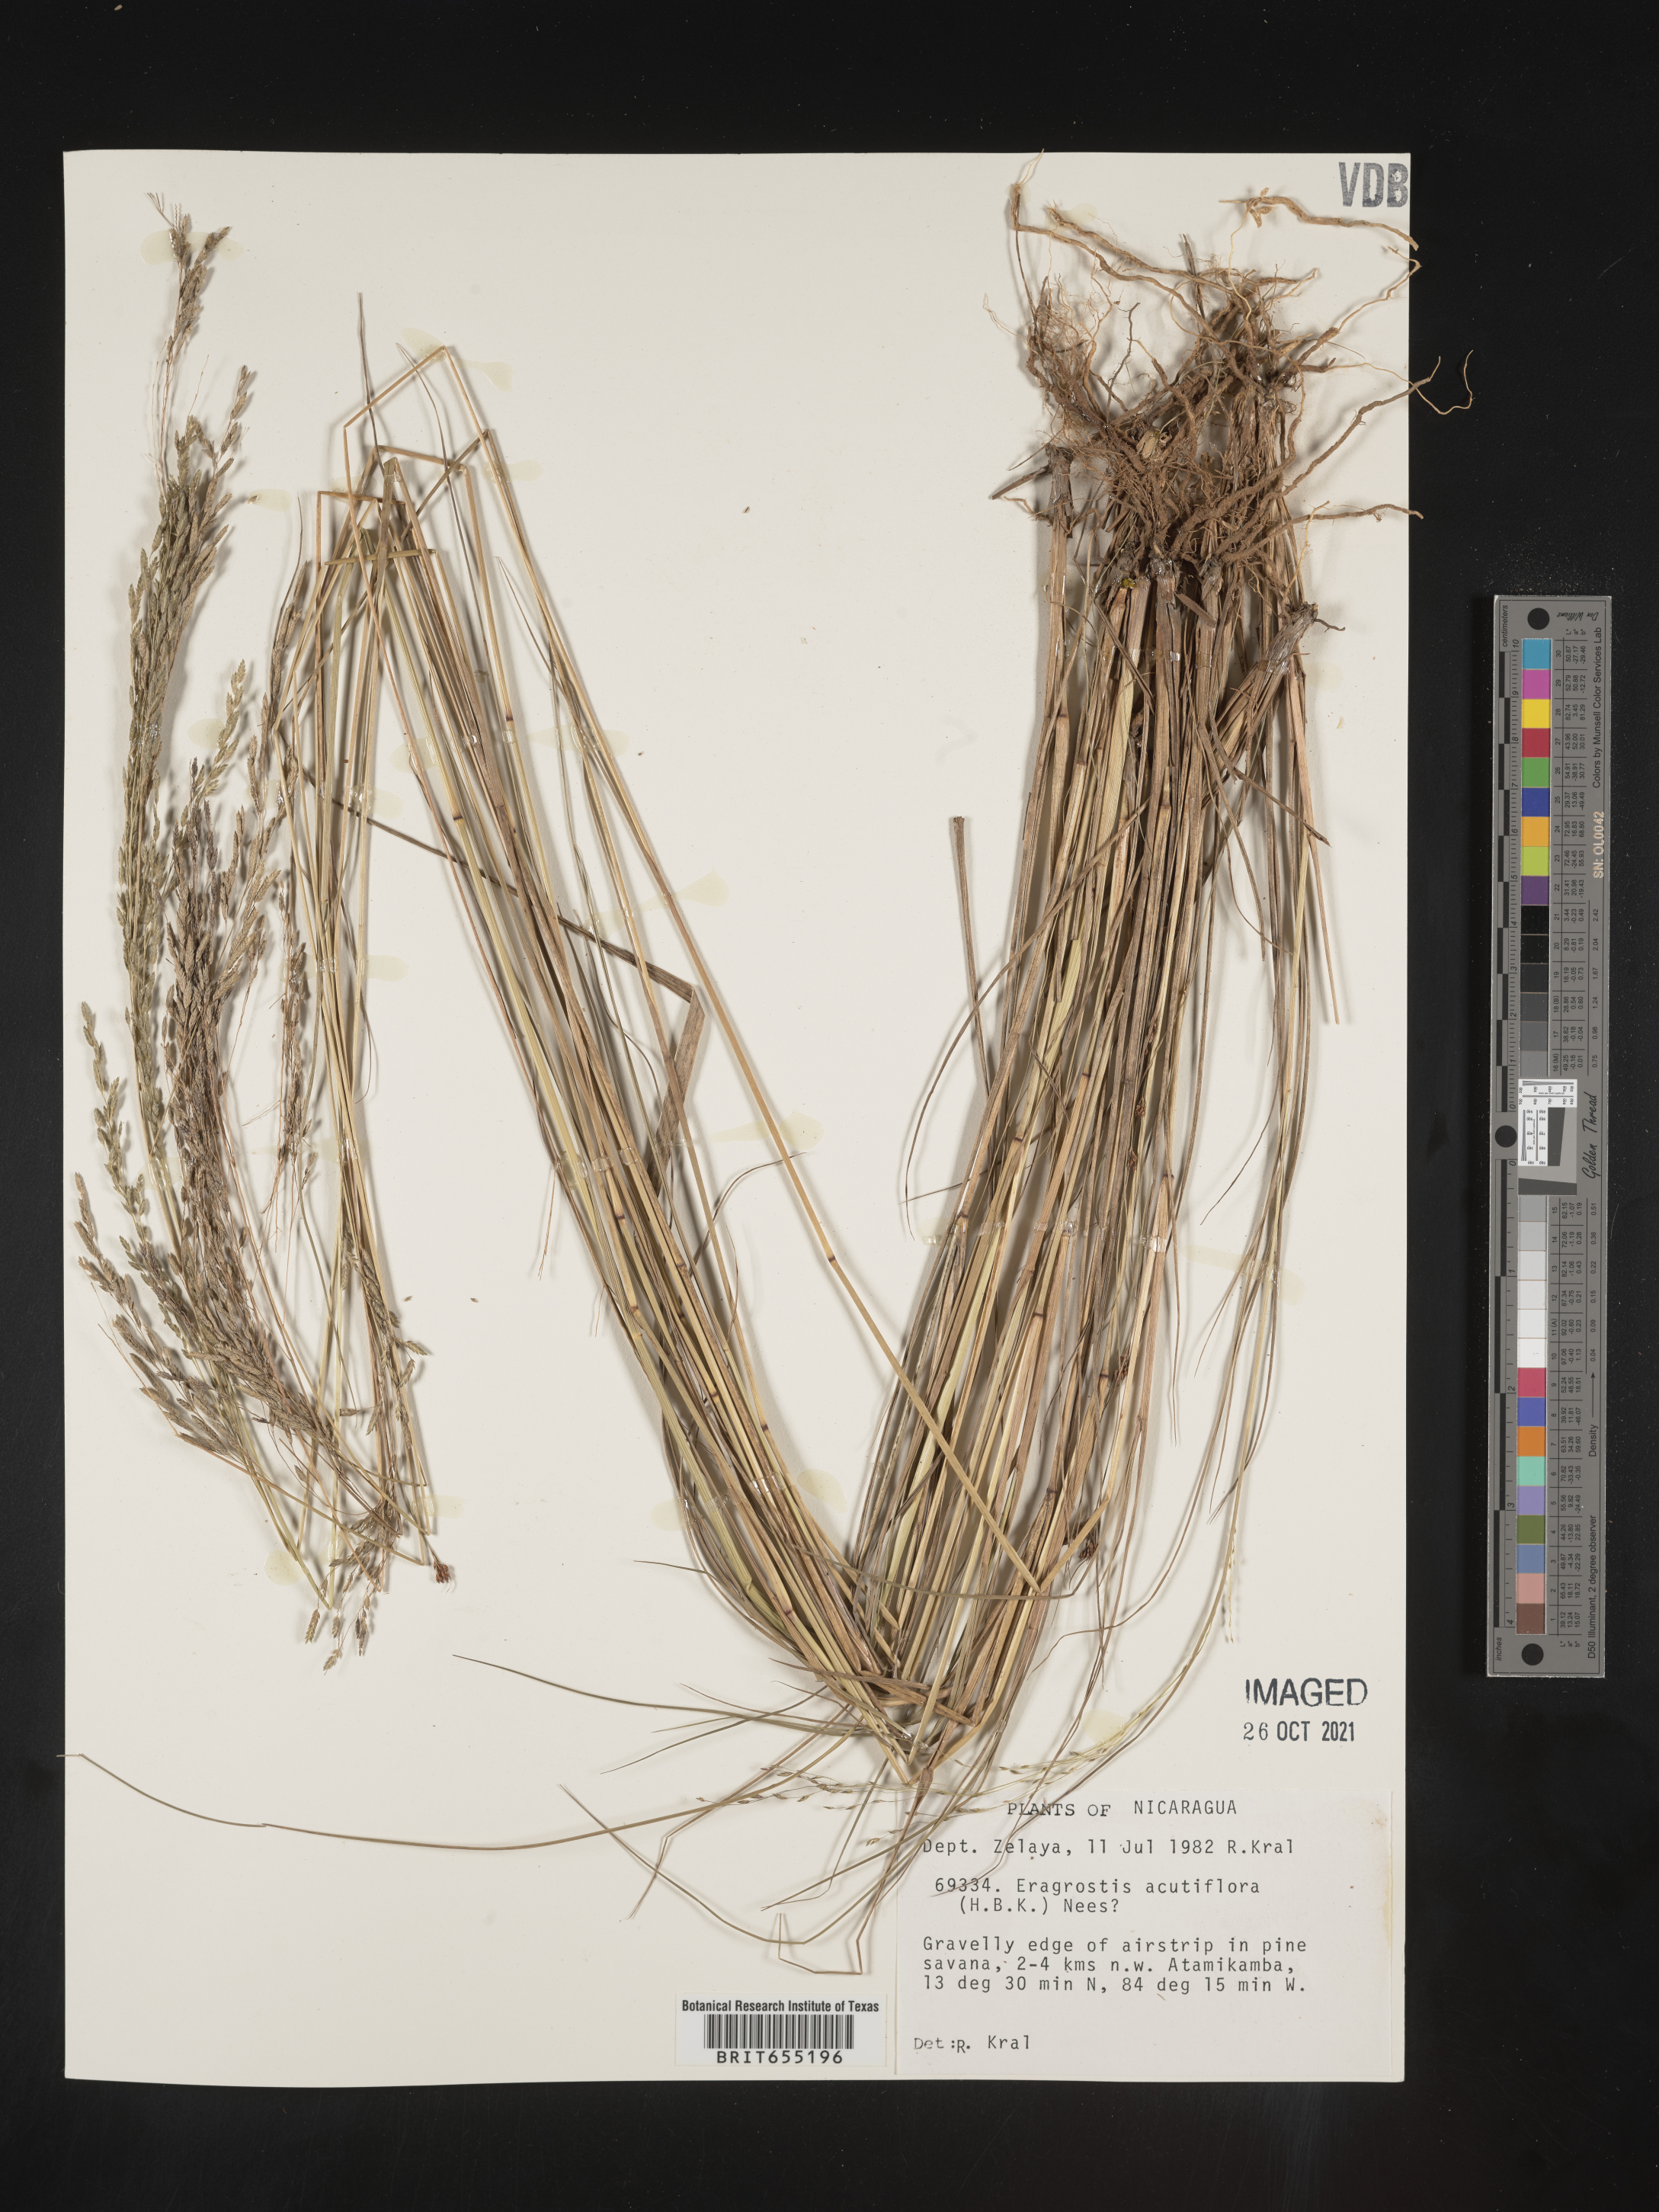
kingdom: Plantae
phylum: Tracheophyta
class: Liliopsida
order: Poales
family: Poaceae
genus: Eragrostis
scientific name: Eragrostis
